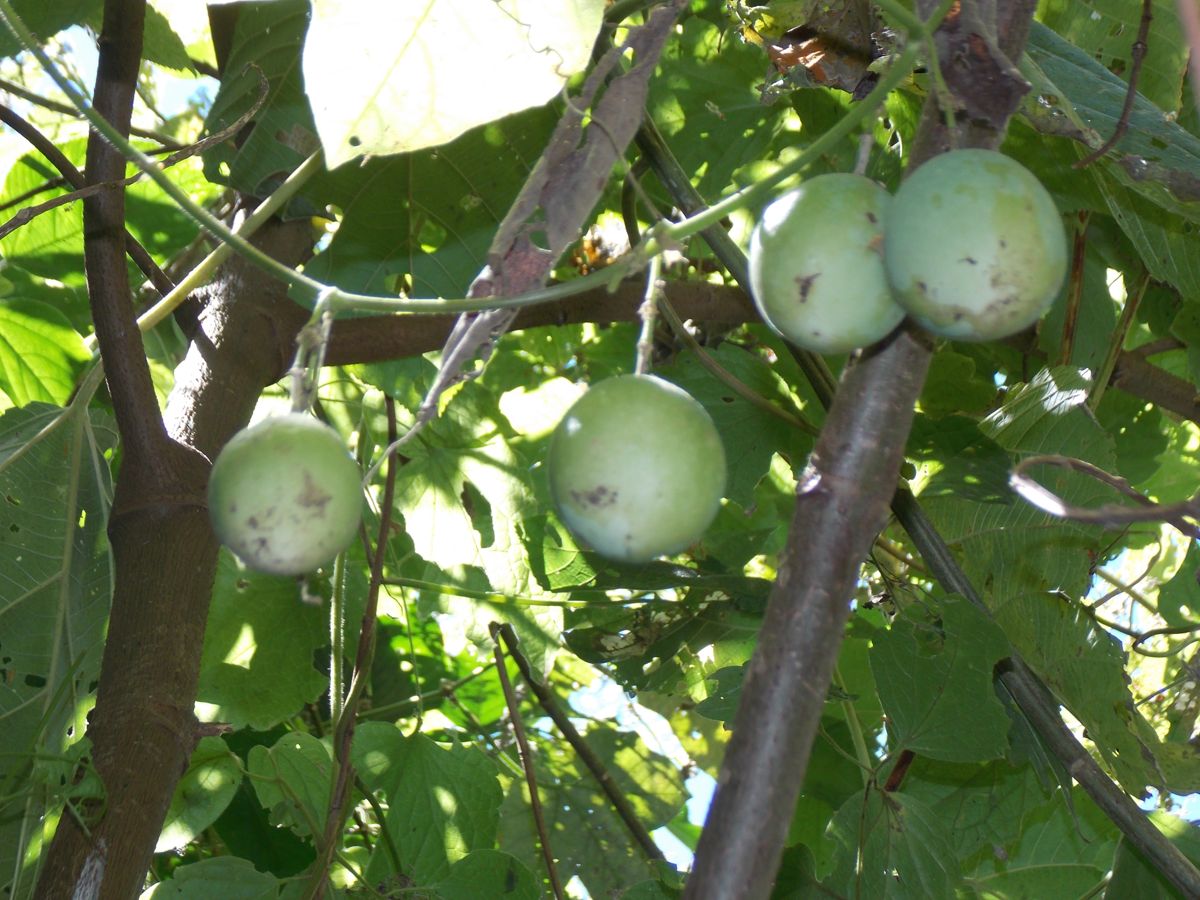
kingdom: Plantae
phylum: Tracheophyta
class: Magnoliopsida
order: Malpighiales
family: Passifloraceae
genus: Passiflora
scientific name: Passiflora adenopoda
